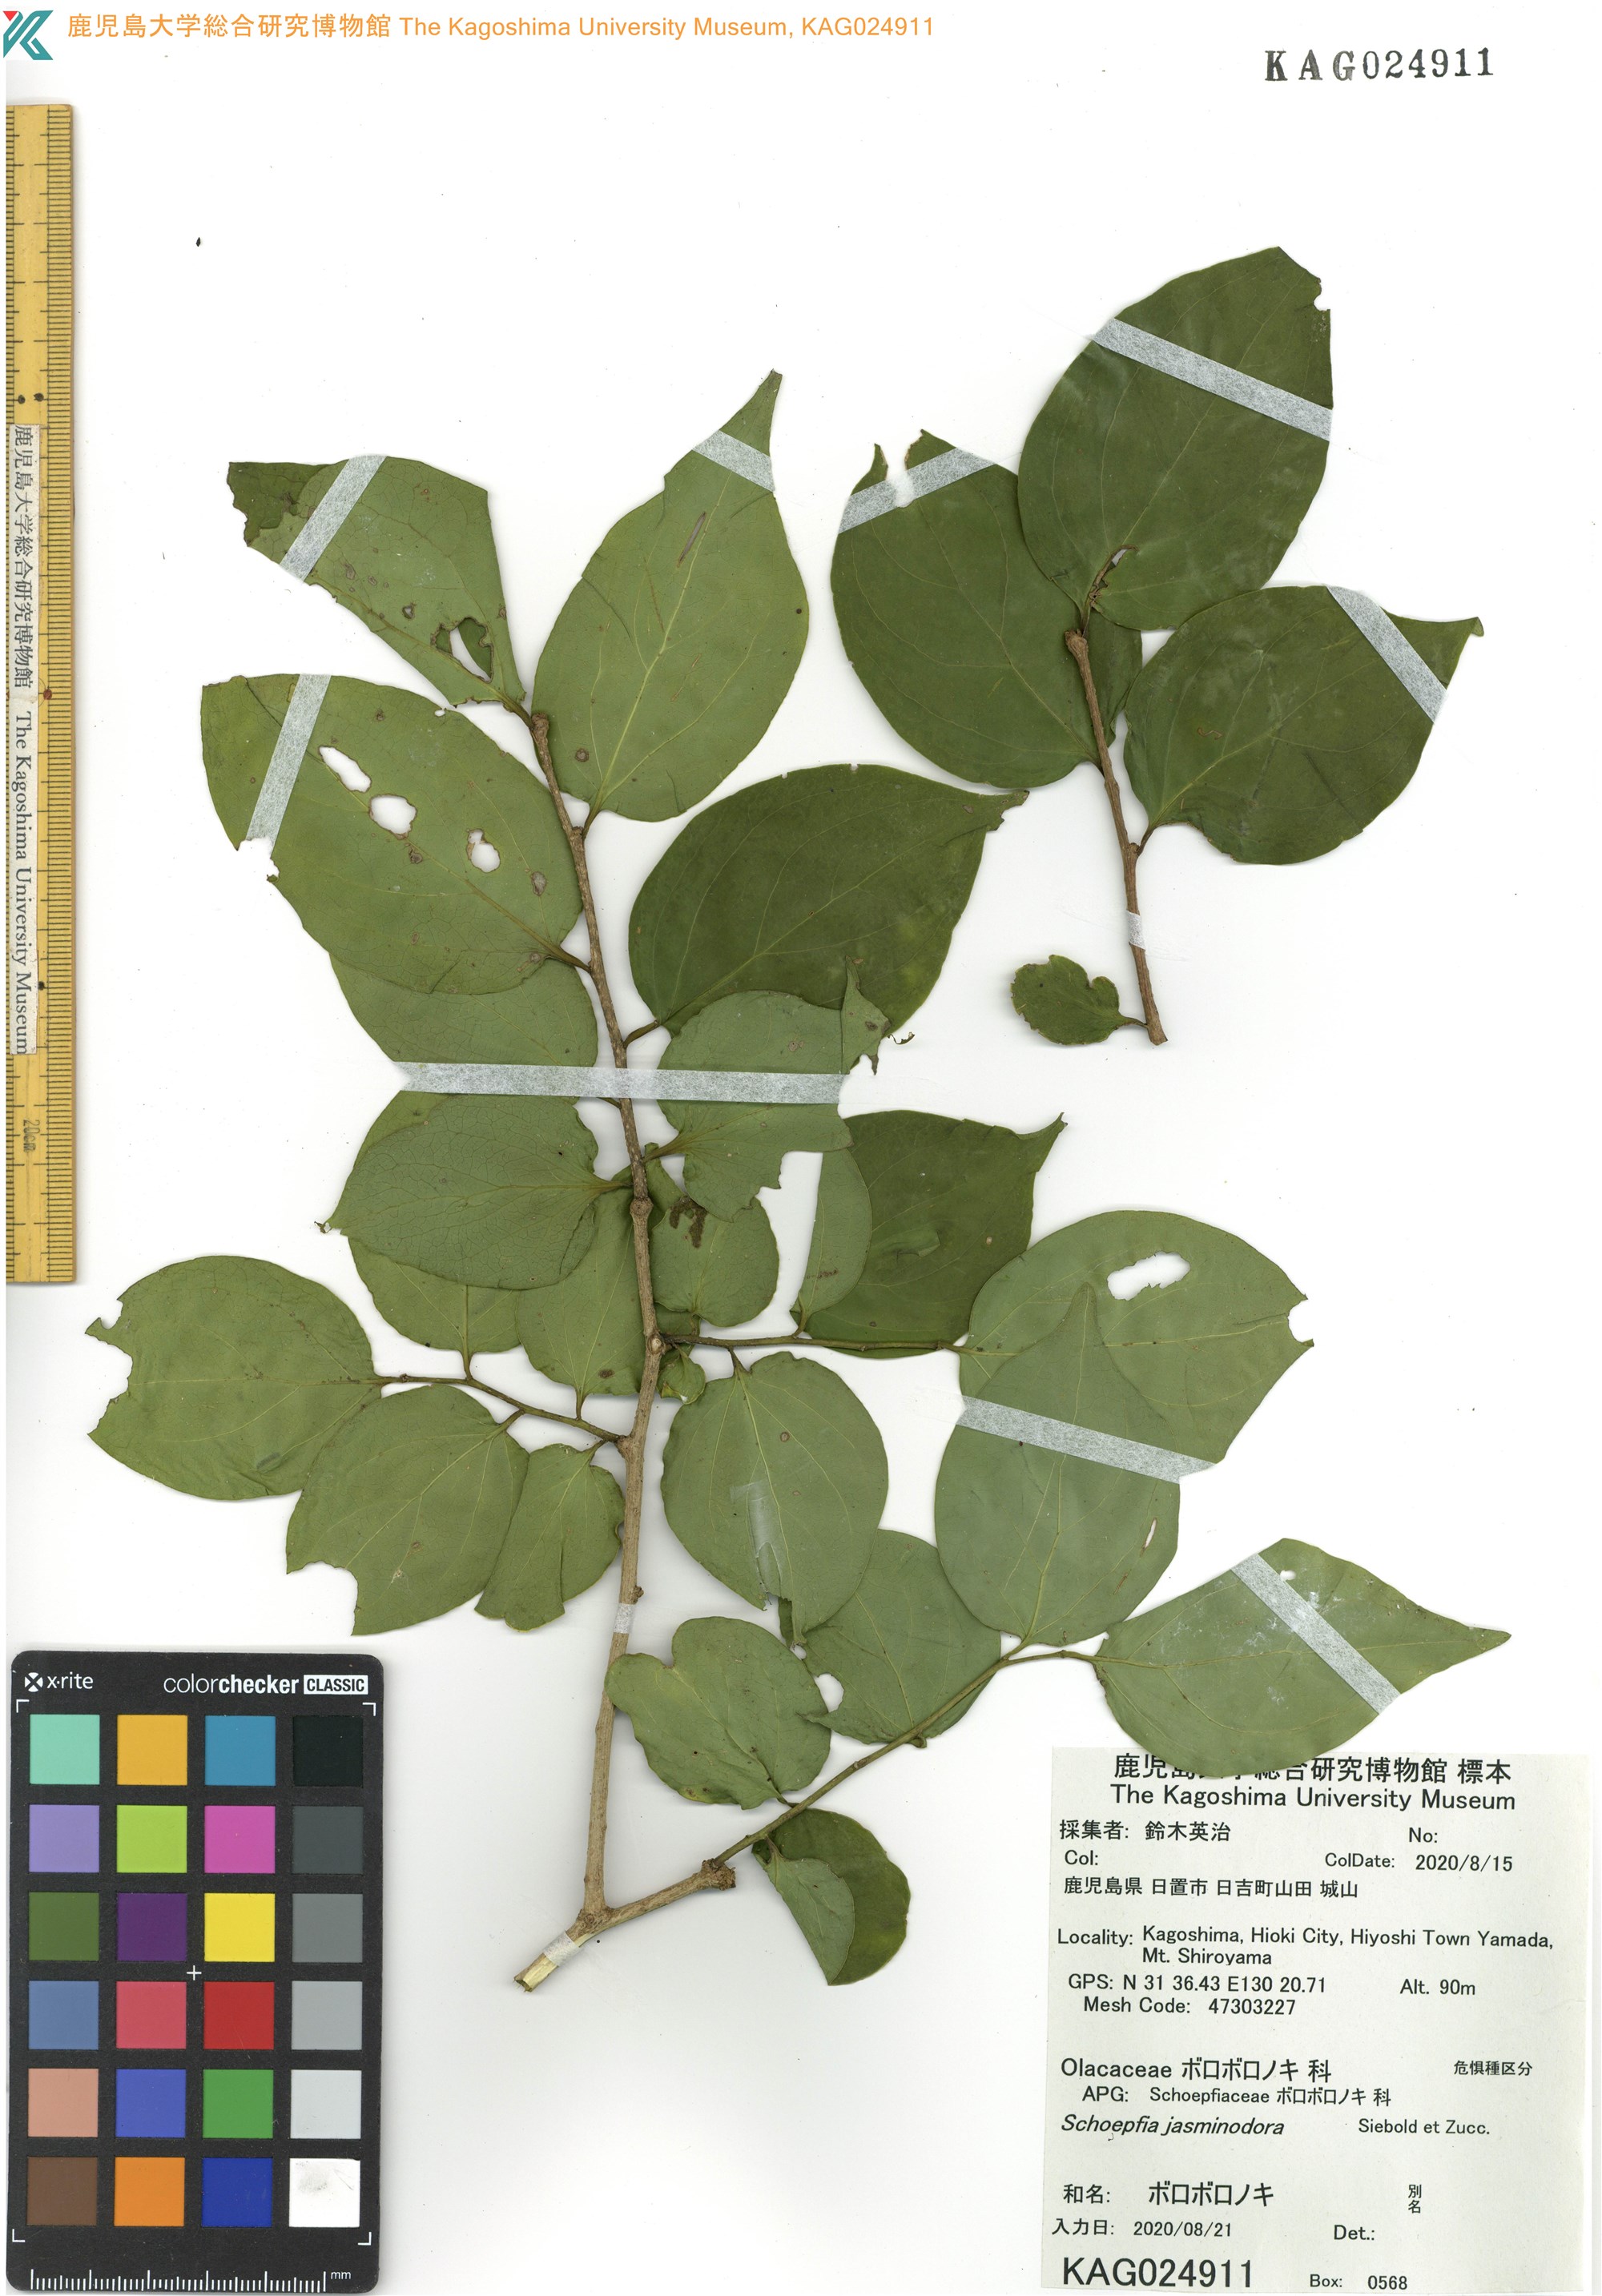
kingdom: Plantae
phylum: Tracheophyta
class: Magnoliopsida
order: Santalales
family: Schoepfiaceae
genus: Schoepfia
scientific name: Schoepfia jasminodora
